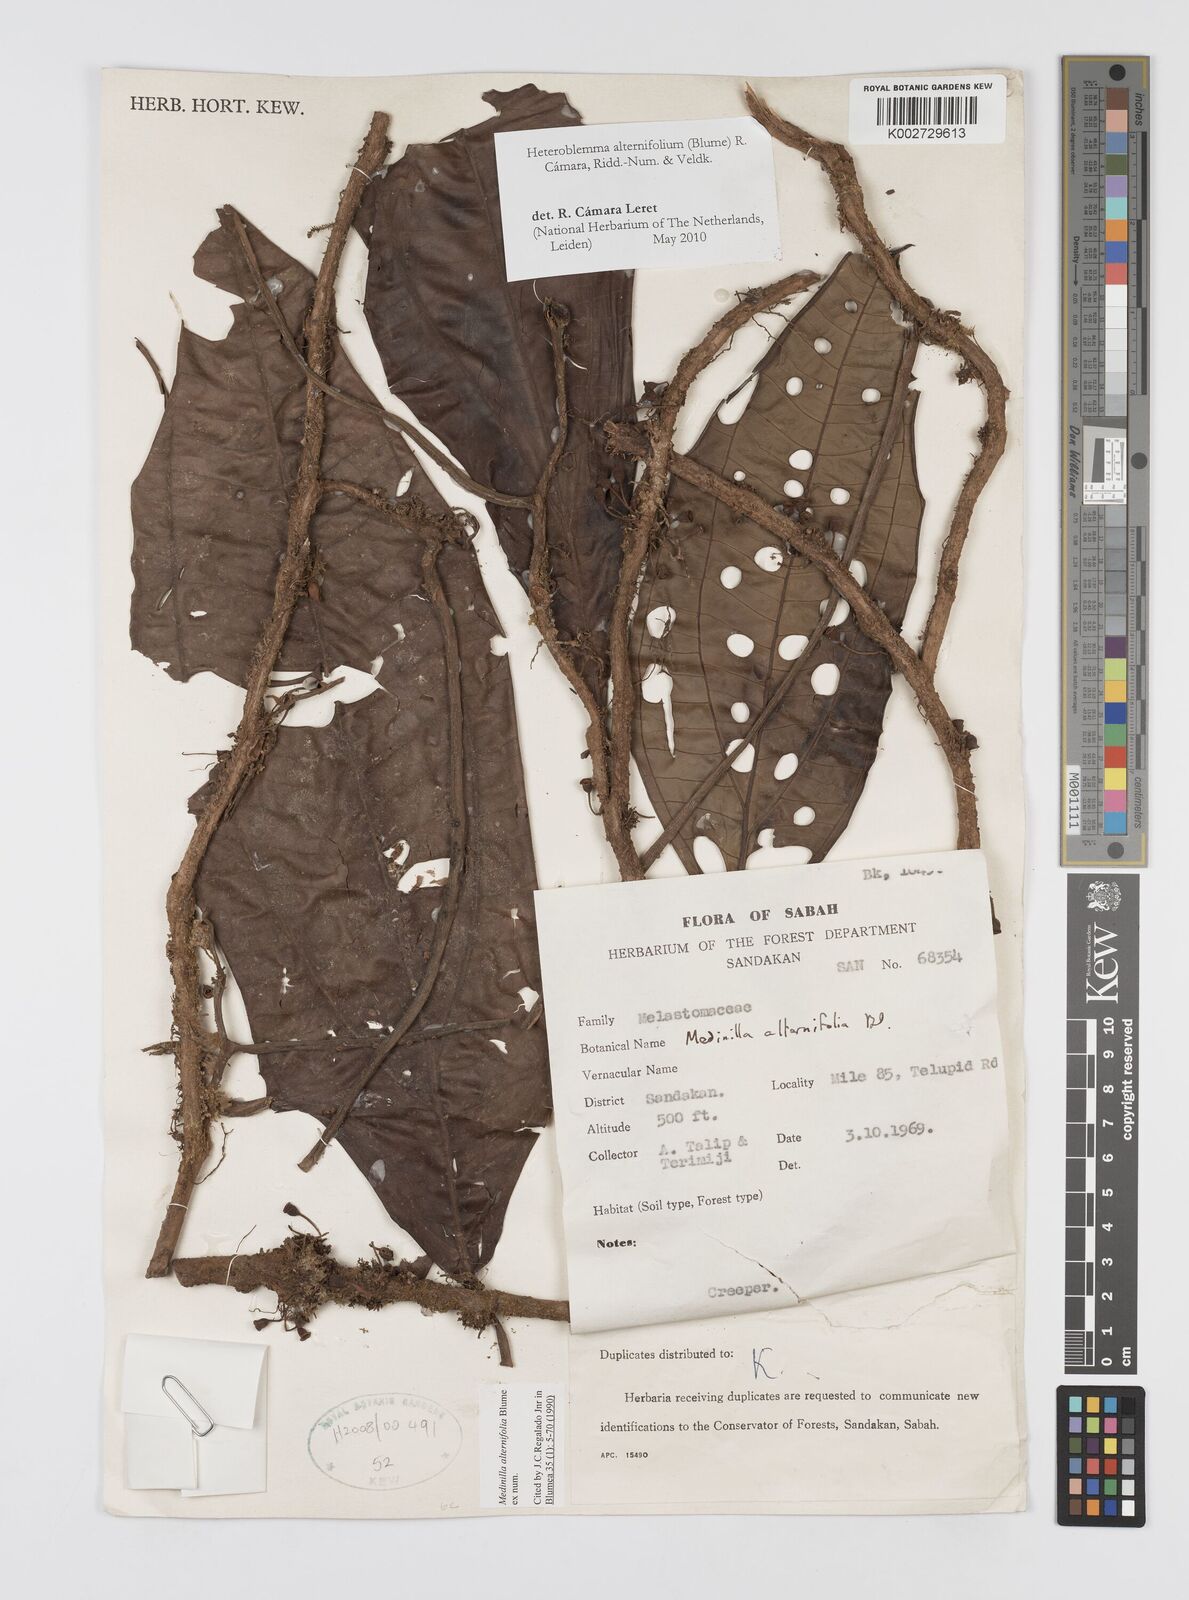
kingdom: Plantae
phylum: Tracheophyta
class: Magnoliopsida
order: Myrtales
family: Melastomataceae
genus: Heteroblemma
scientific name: Heteroblemma alternifolium
